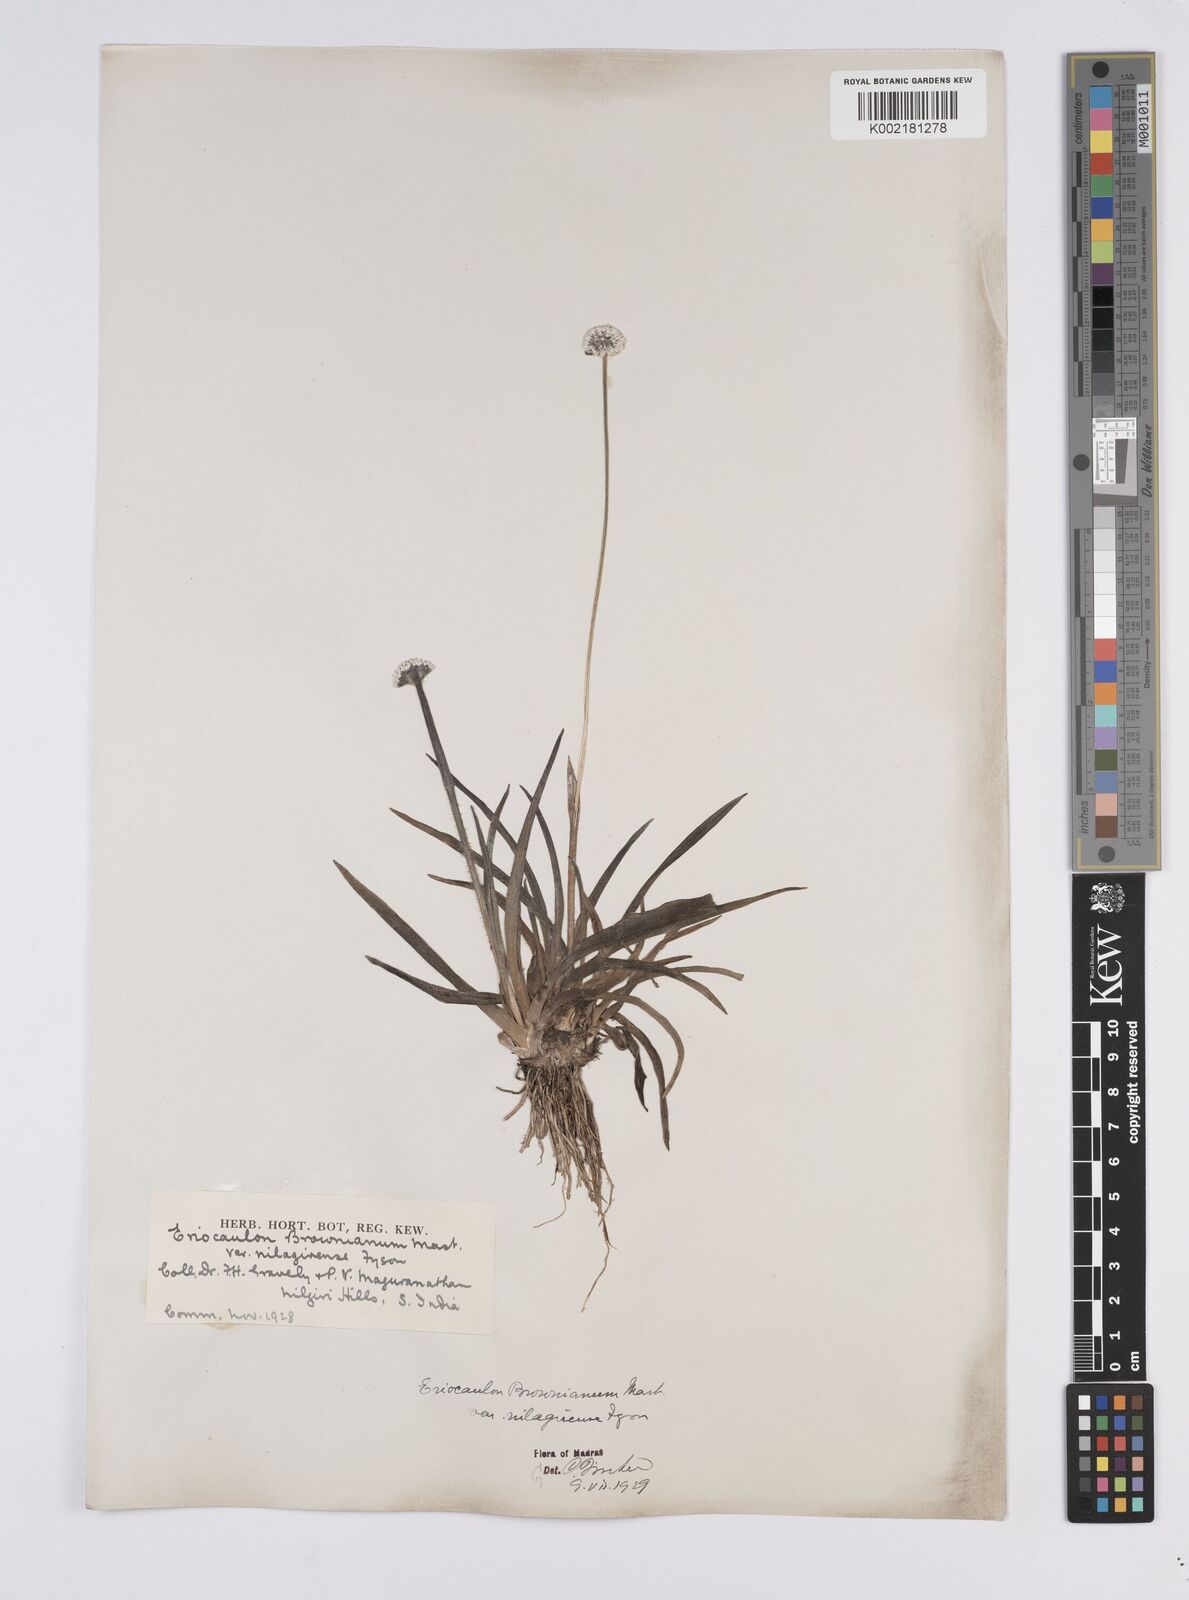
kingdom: Plantae
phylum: Tracheophyta
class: Liliopsida
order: Poales
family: Eriocaulaceae
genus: Eriocaulon
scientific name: Eriocaulon brownianum
